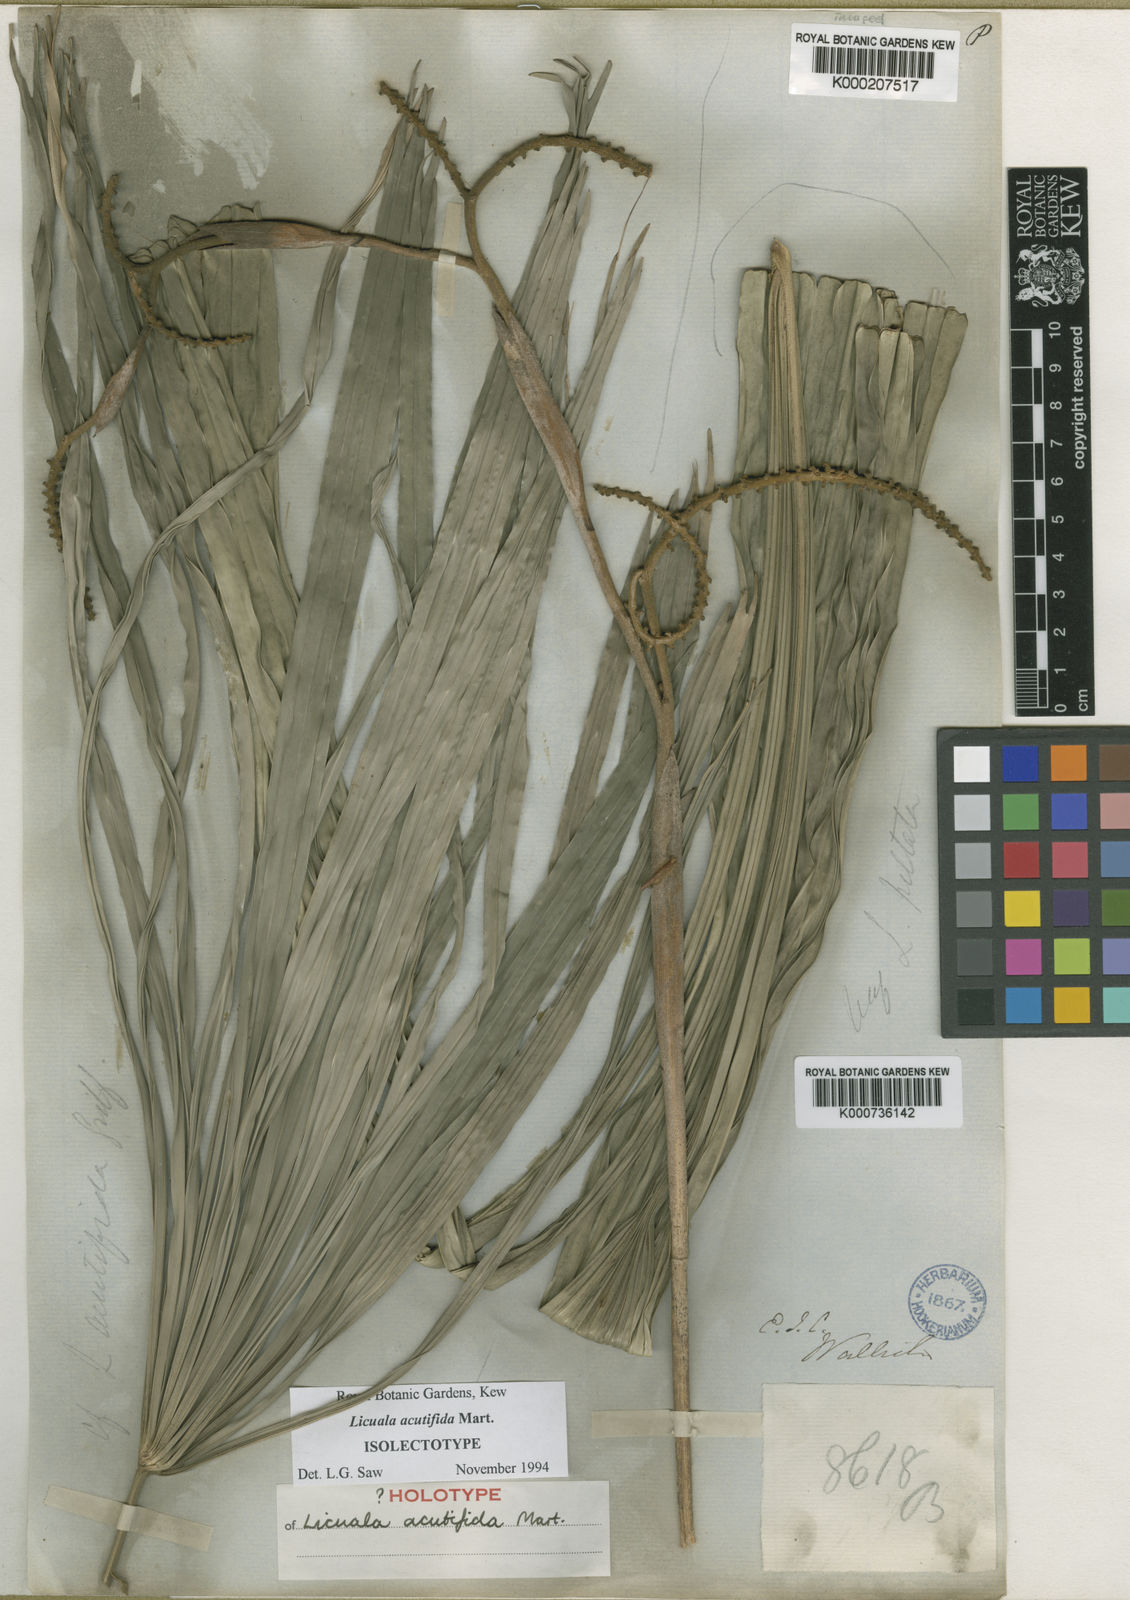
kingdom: Plantae
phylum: Tracheophyta
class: Liliopsida
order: Arecales
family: Arecaceae
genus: Licuala
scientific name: Licuala acutifida
